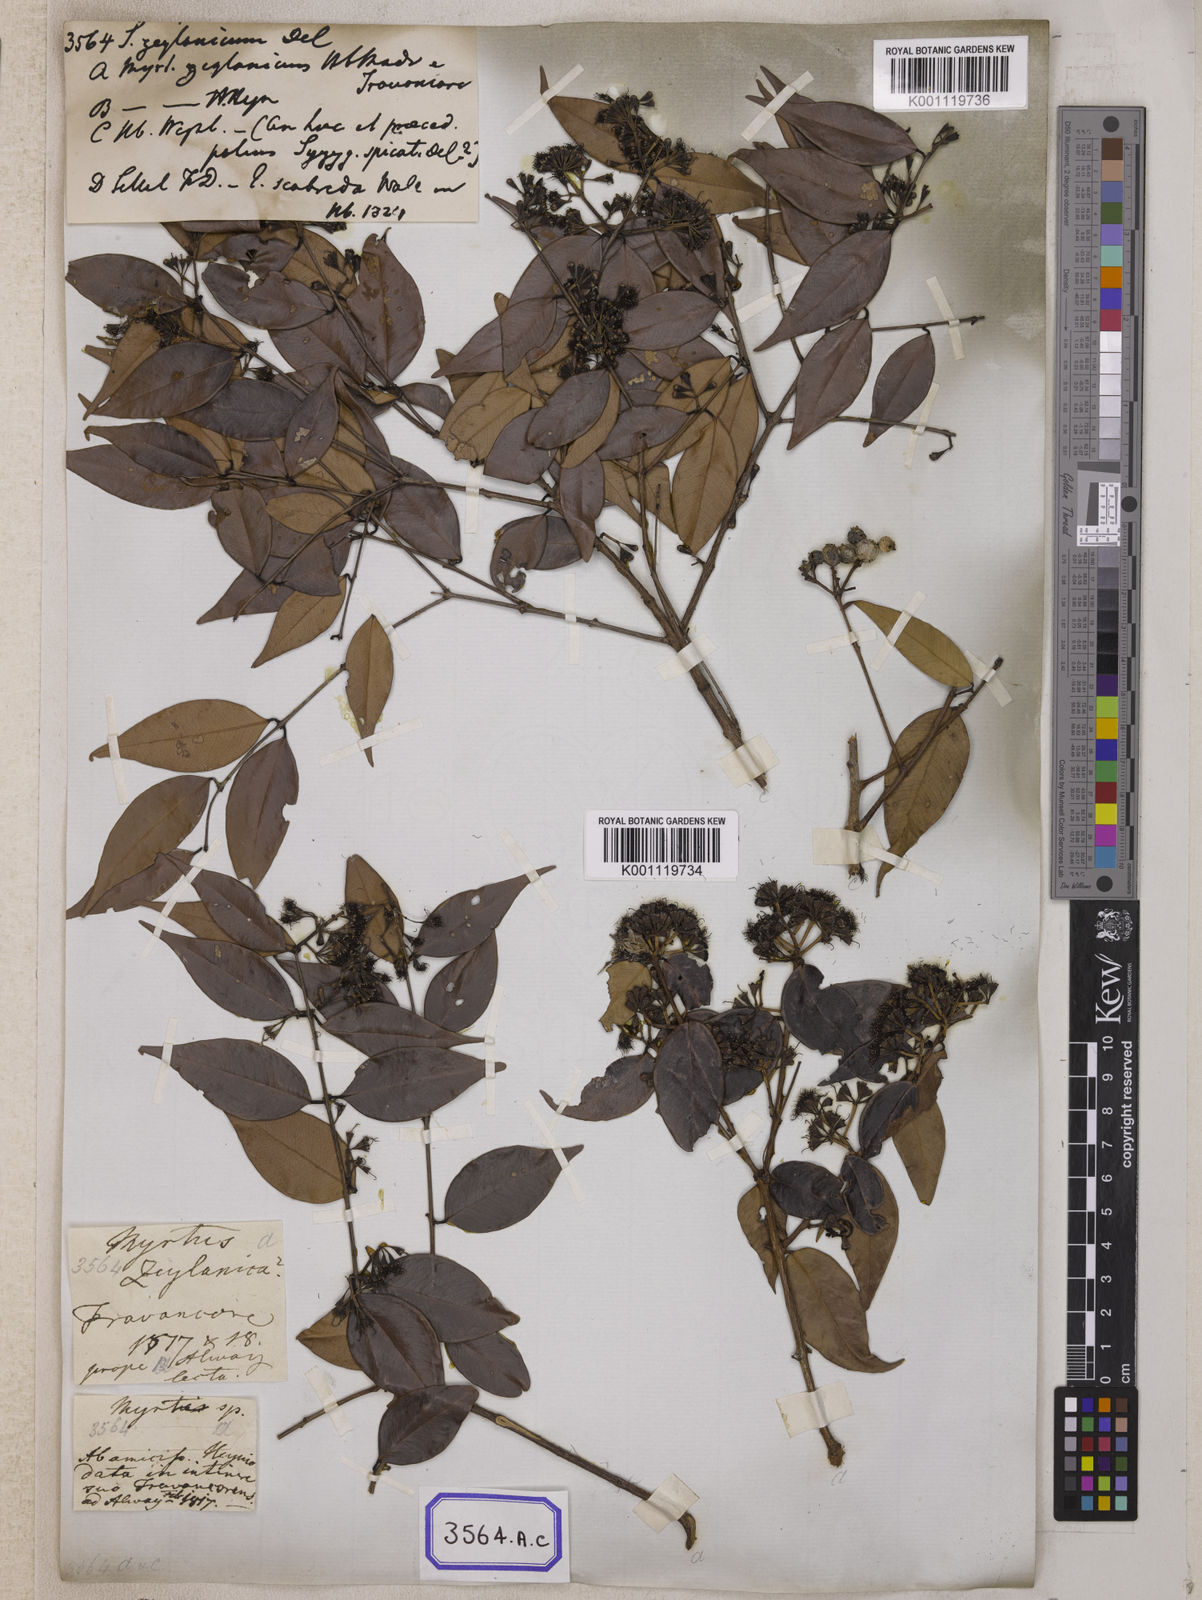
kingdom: Plantae
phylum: Tracheophyta
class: Magnoliopsida
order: Myrtales
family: Myrtaceae
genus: Syzygium
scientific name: Syzygium zeylanicum
